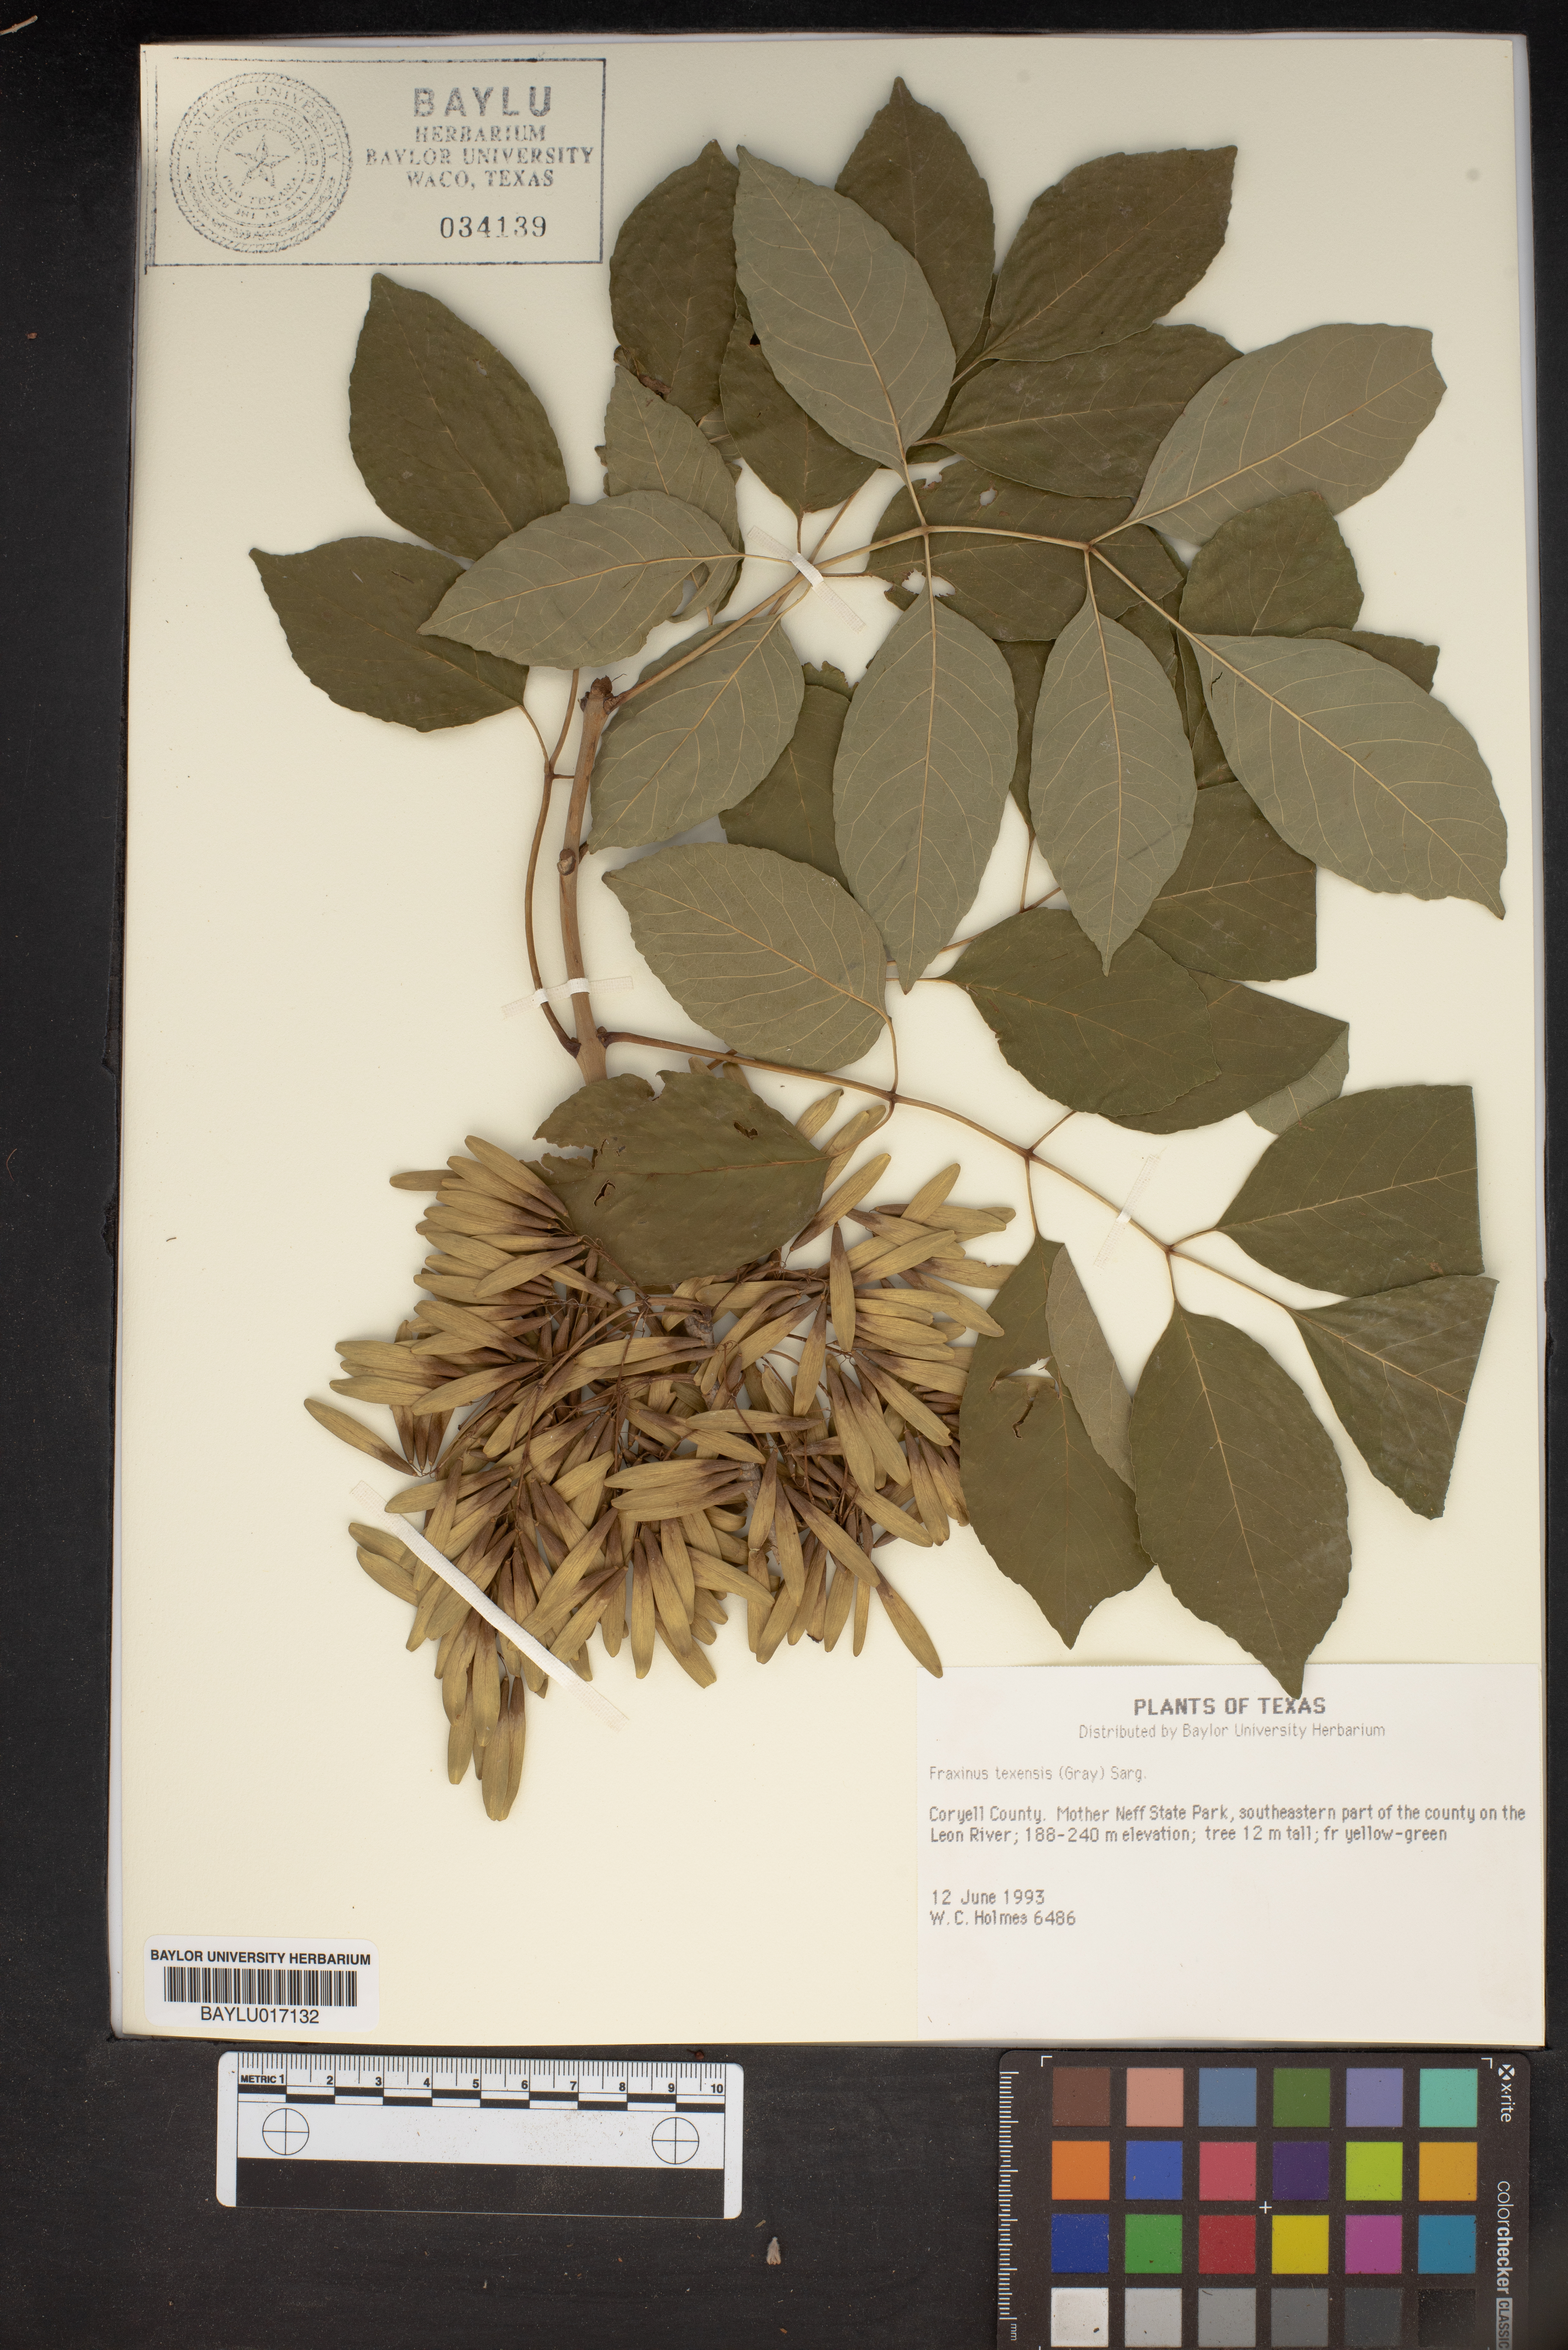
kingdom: Plantae
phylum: Tracheophyta
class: Magnoliopsida
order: Lamiales
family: Oleaceae
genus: Fraxinus
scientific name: Fraxinus albicans
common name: Texas ash
